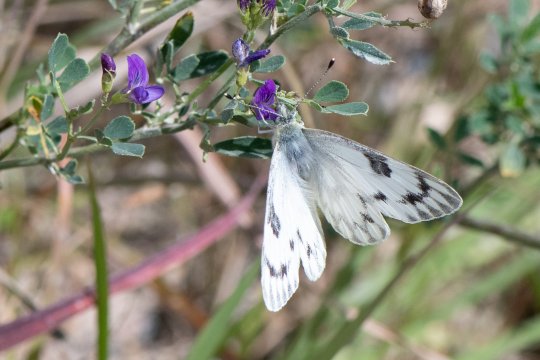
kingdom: Animalia
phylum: Arthropoda
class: Insecta
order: Lepidoptera
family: Pieridae
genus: Pontia
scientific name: Pontia
